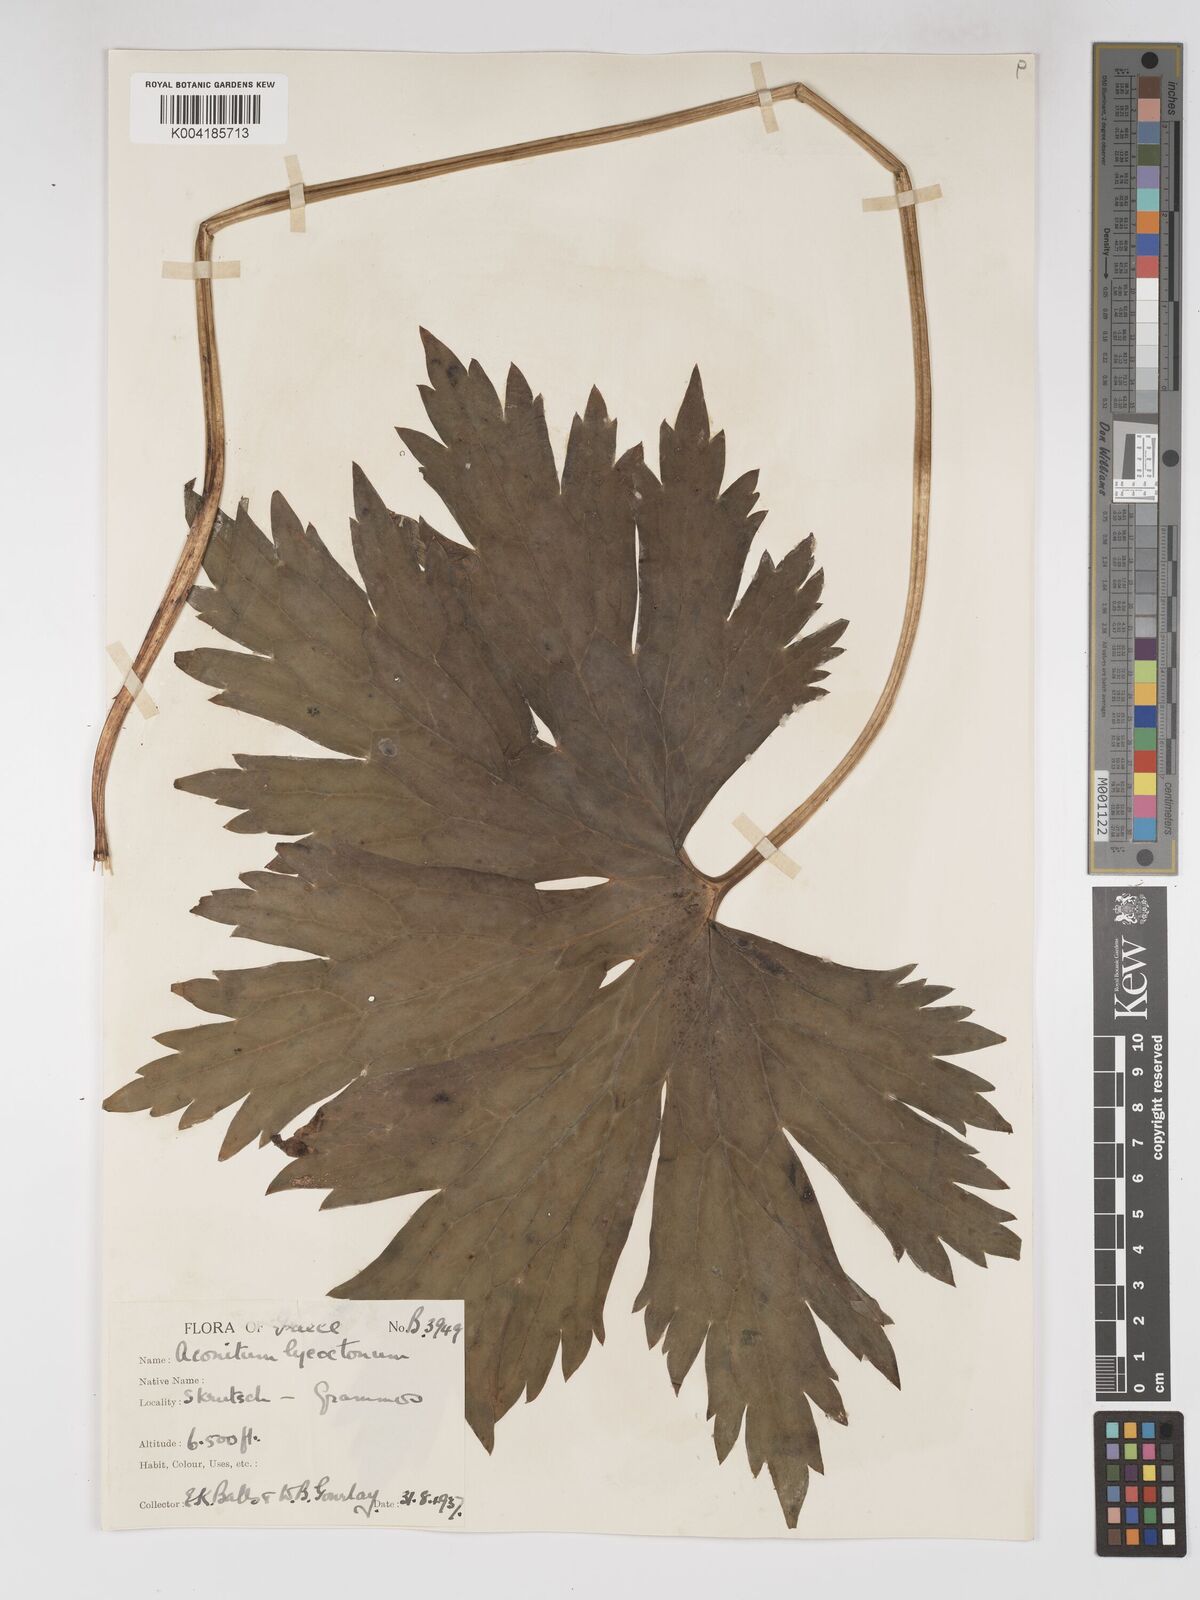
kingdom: Plantae
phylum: Tracheophyta
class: Magnoliopsida
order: Ranunculales
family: Ranunculaceae
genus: Aconitum
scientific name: Aconitum lycoctonum
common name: Wolf's-bane
